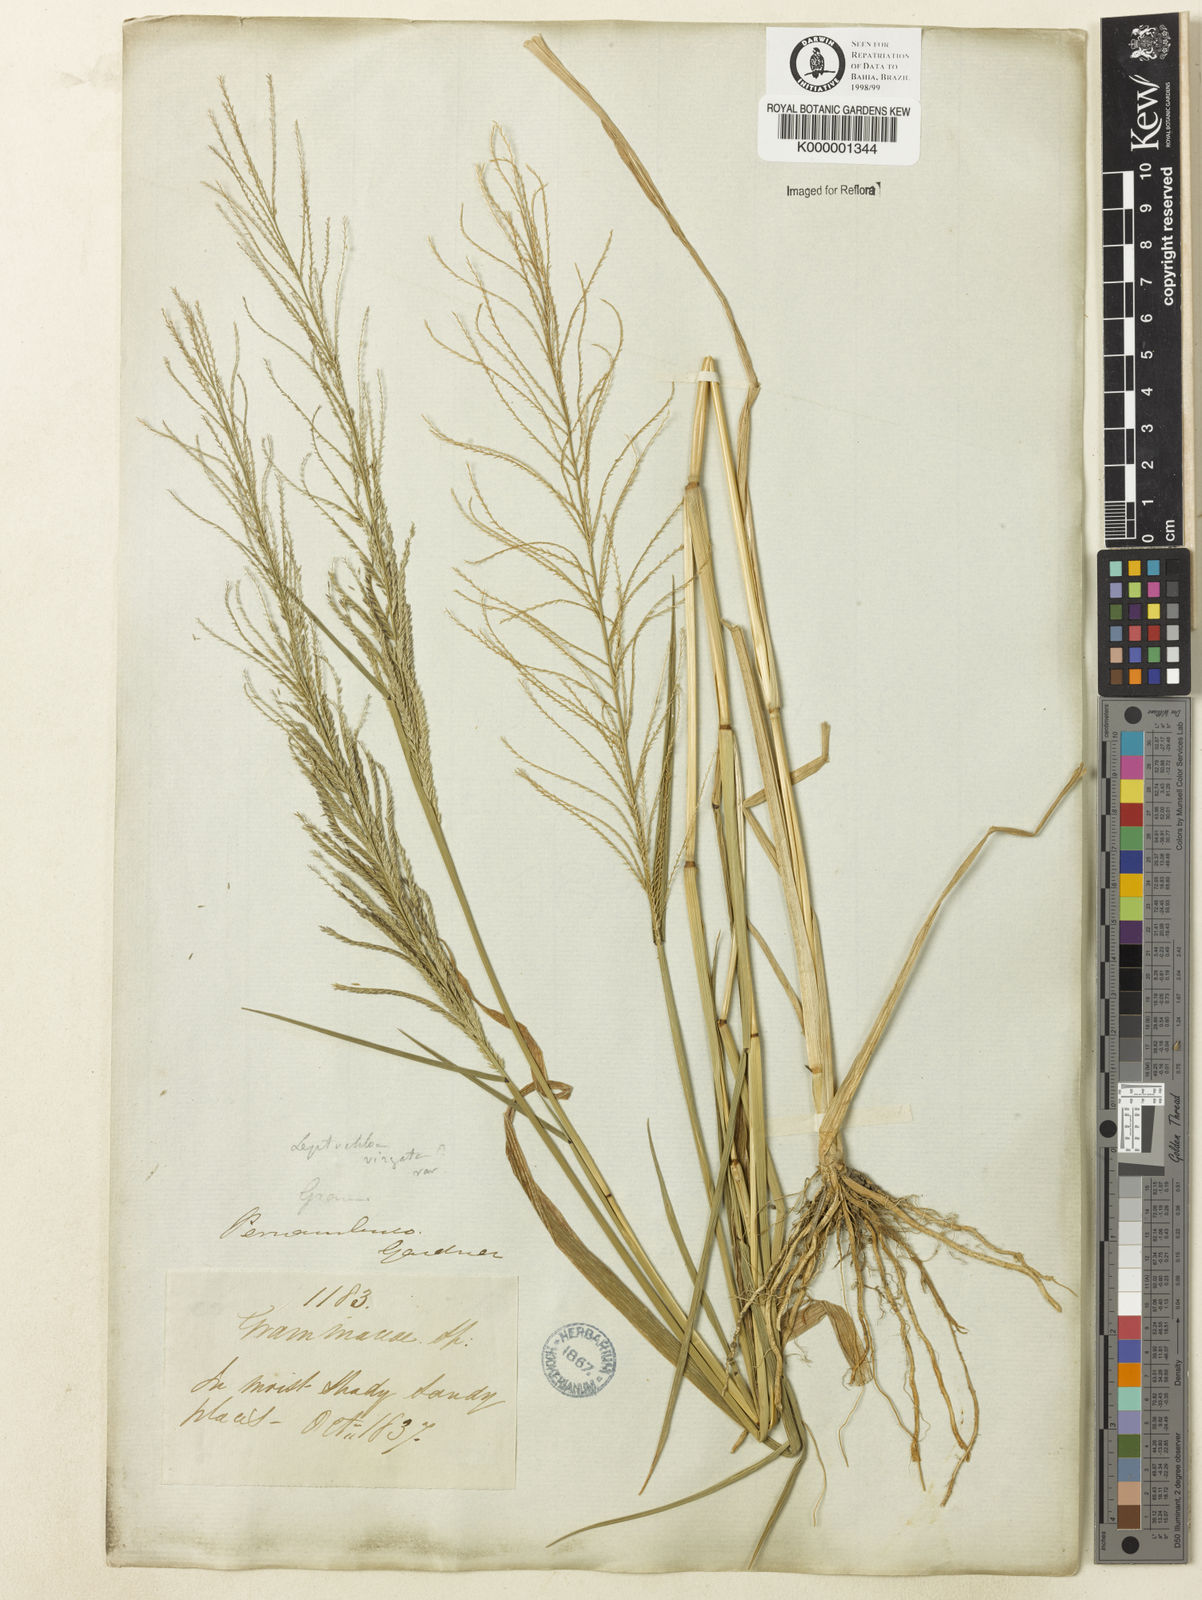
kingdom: Plantae
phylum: Tracheophyta
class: Liliopsida
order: Poales
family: Poaceae
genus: Leptochloa
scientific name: Leptochloa
